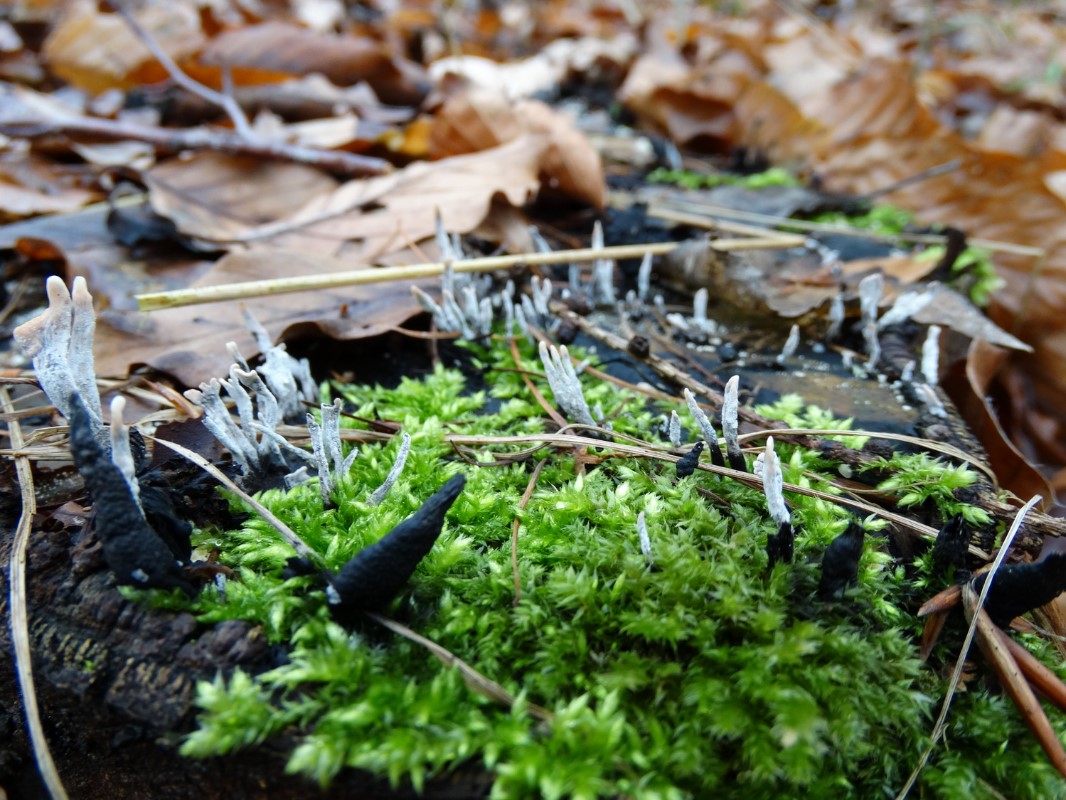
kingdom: Fungi
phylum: Ascomycota
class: Sordariomycetes
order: Xylariales
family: Xylariaceae
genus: Xylaria
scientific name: Xylaria hypoxylon
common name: grenet stødsvamp
